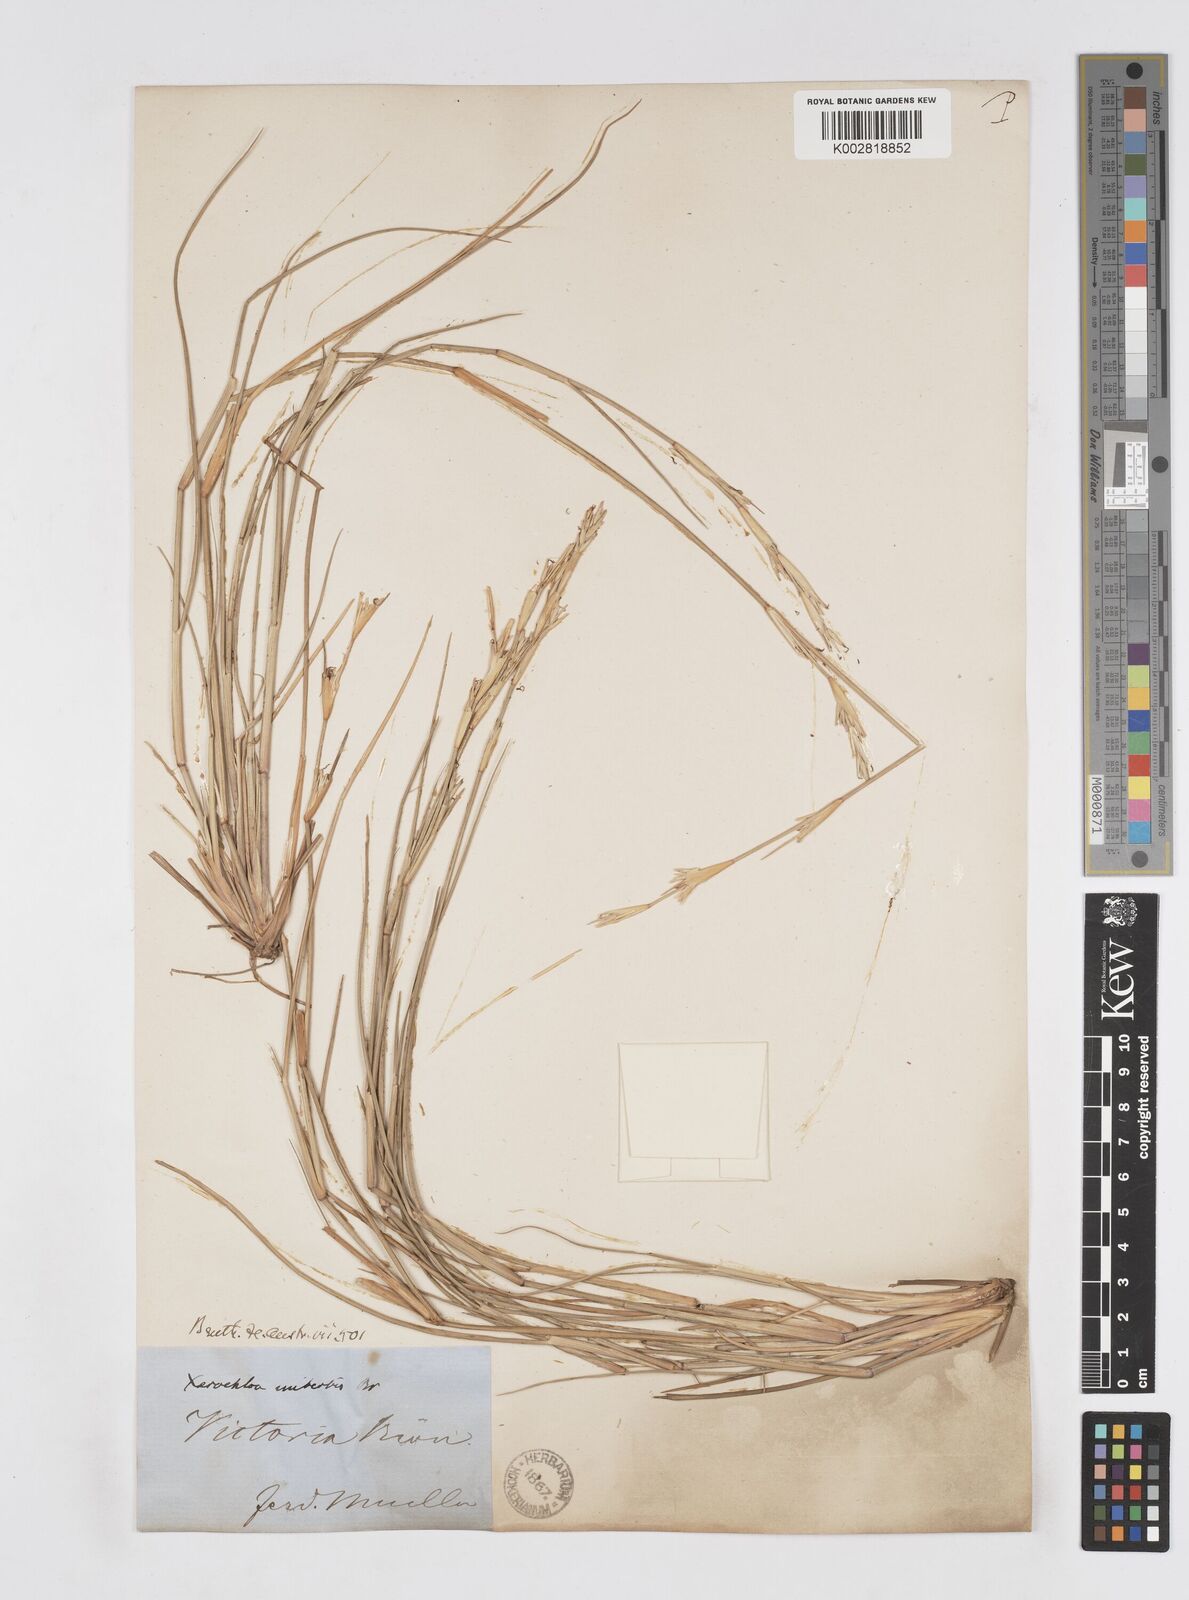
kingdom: Plantae
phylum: Tracheophyta
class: Liliopsida
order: Poales
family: Poaceae
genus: Xerochloa
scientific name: Xerochloa imberbis
